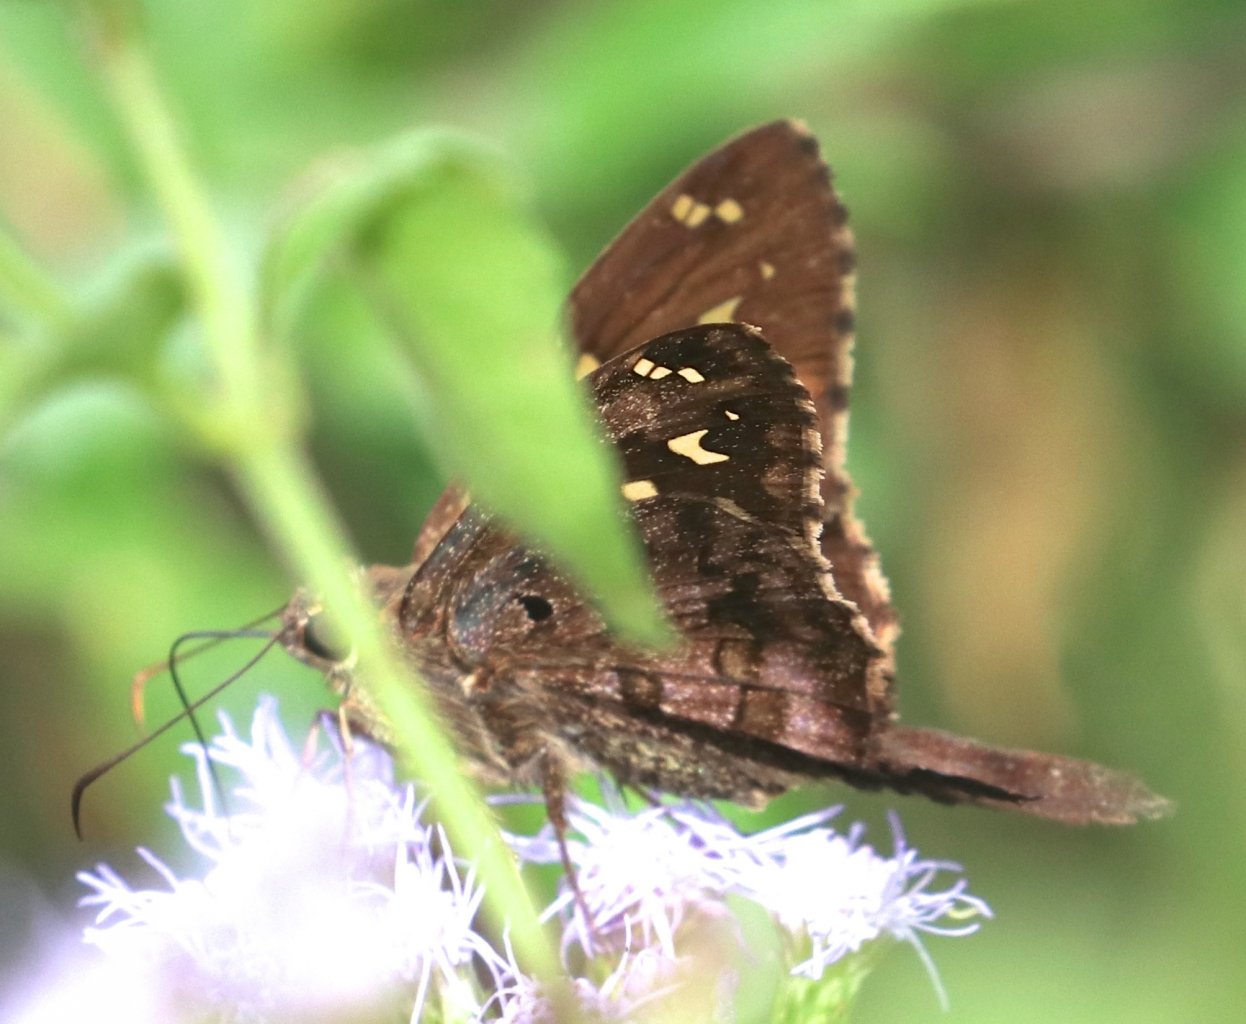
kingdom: Animalia
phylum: Arthropoda
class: Insecta
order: Lepidoptera
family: Hesperiidae
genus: Urbanus
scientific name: Urbanus dorantes
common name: Dorantes Longtail
